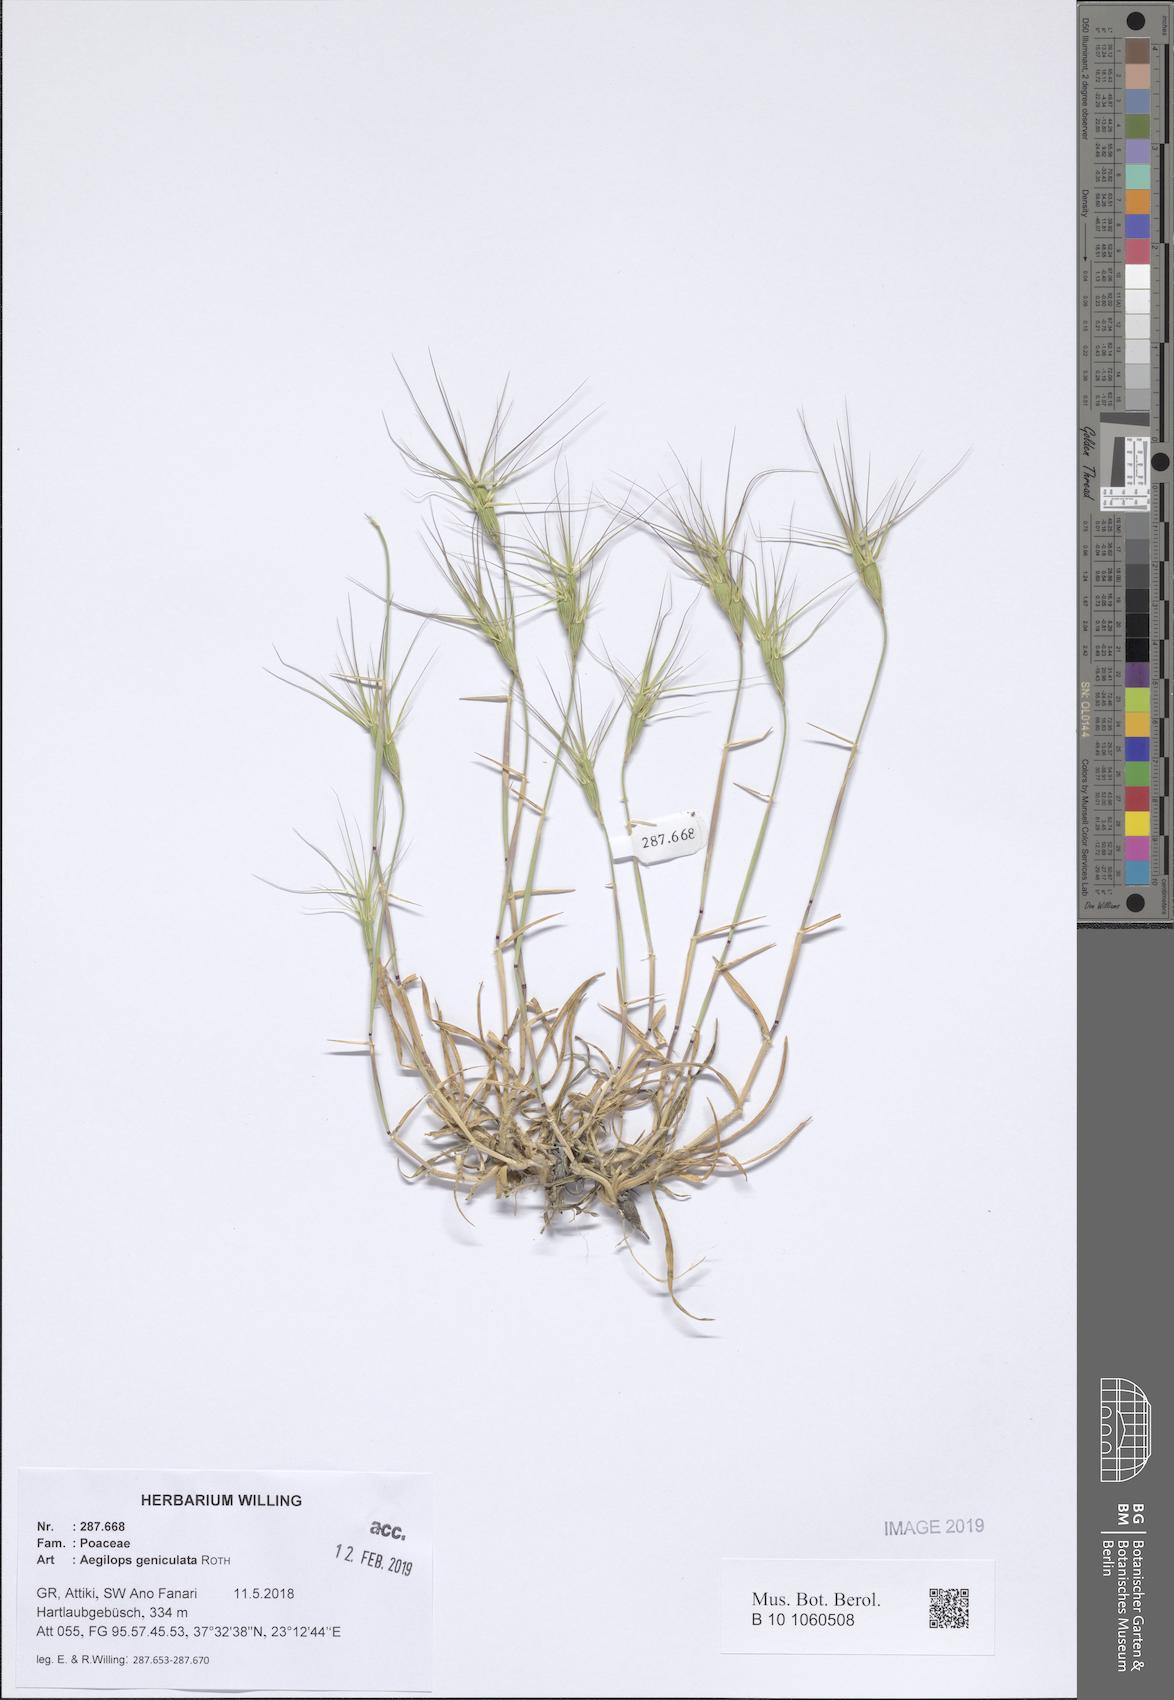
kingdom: Plantae
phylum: Tracheophyta
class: Liliopsida
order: Poales
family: Poaceae
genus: Aegilops
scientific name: Aegilops geniculata
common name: Ovate goat grass
